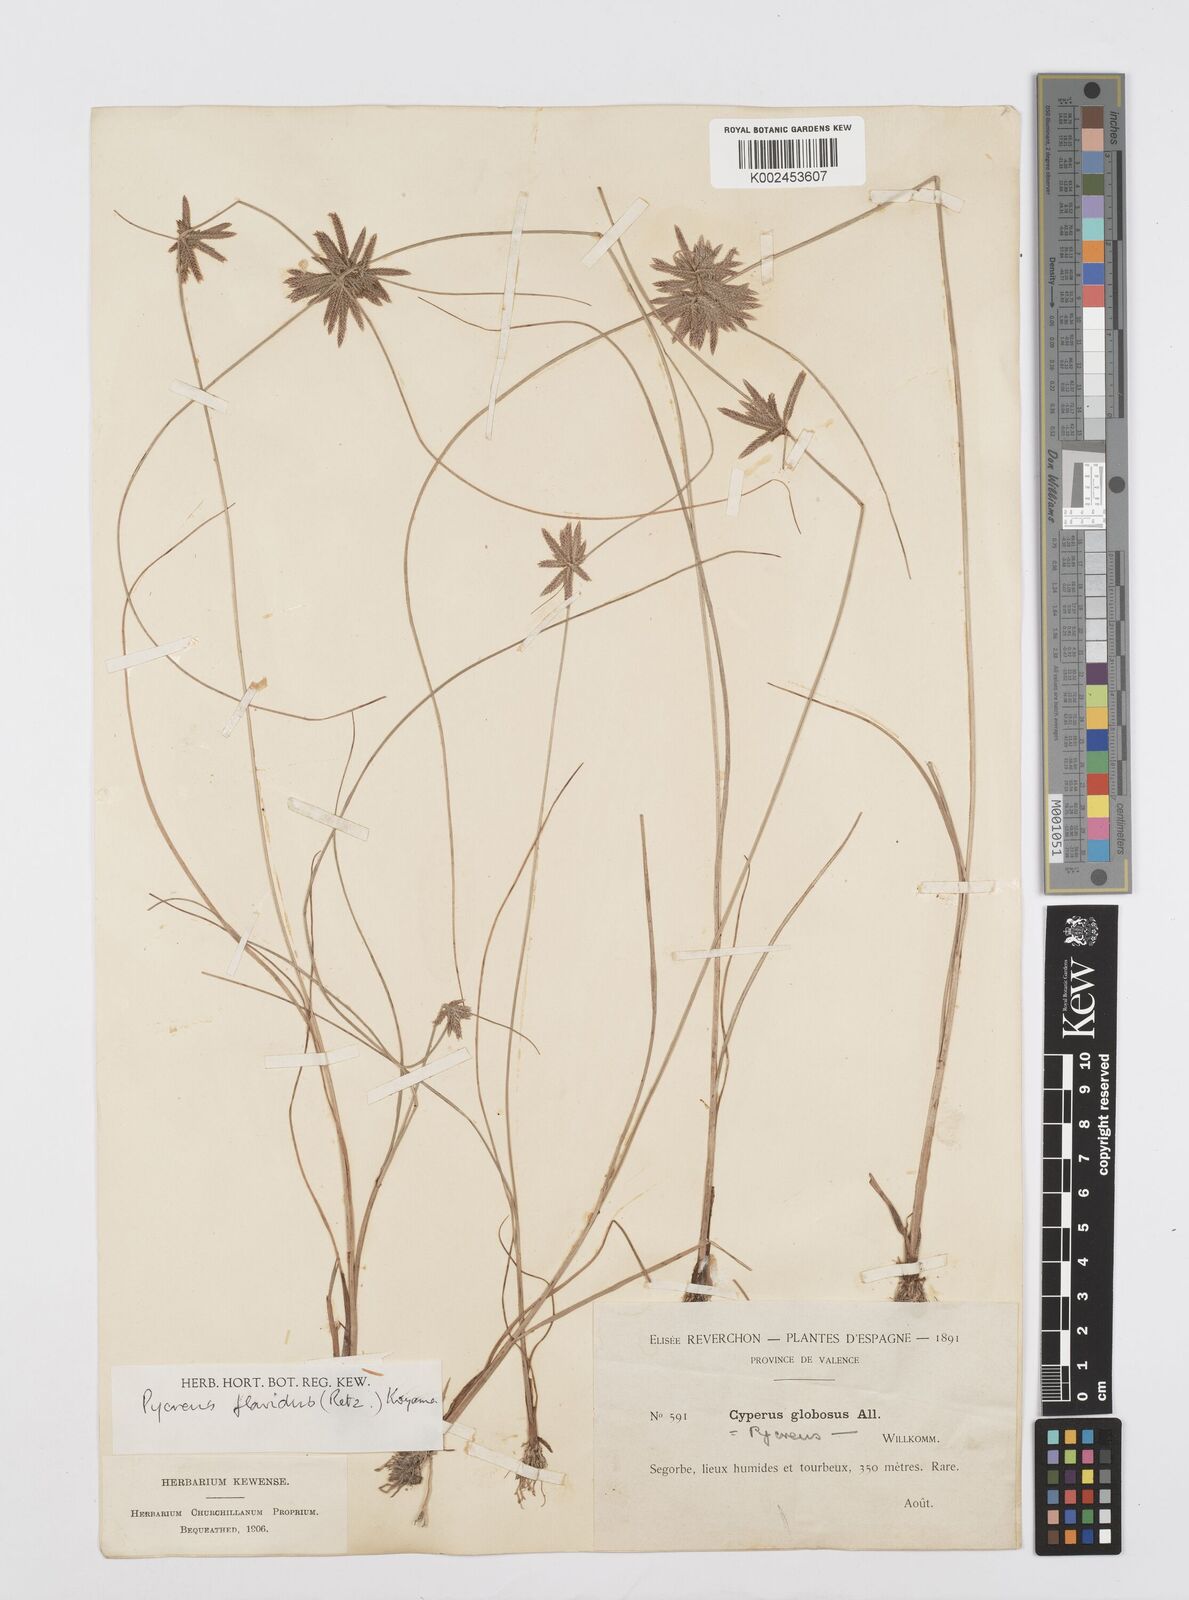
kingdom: Plantae
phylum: Tracheophyta
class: Liliopsida
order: Poales
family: Cyperaceae
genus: Cyperus
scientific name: Cyperus flavidus
